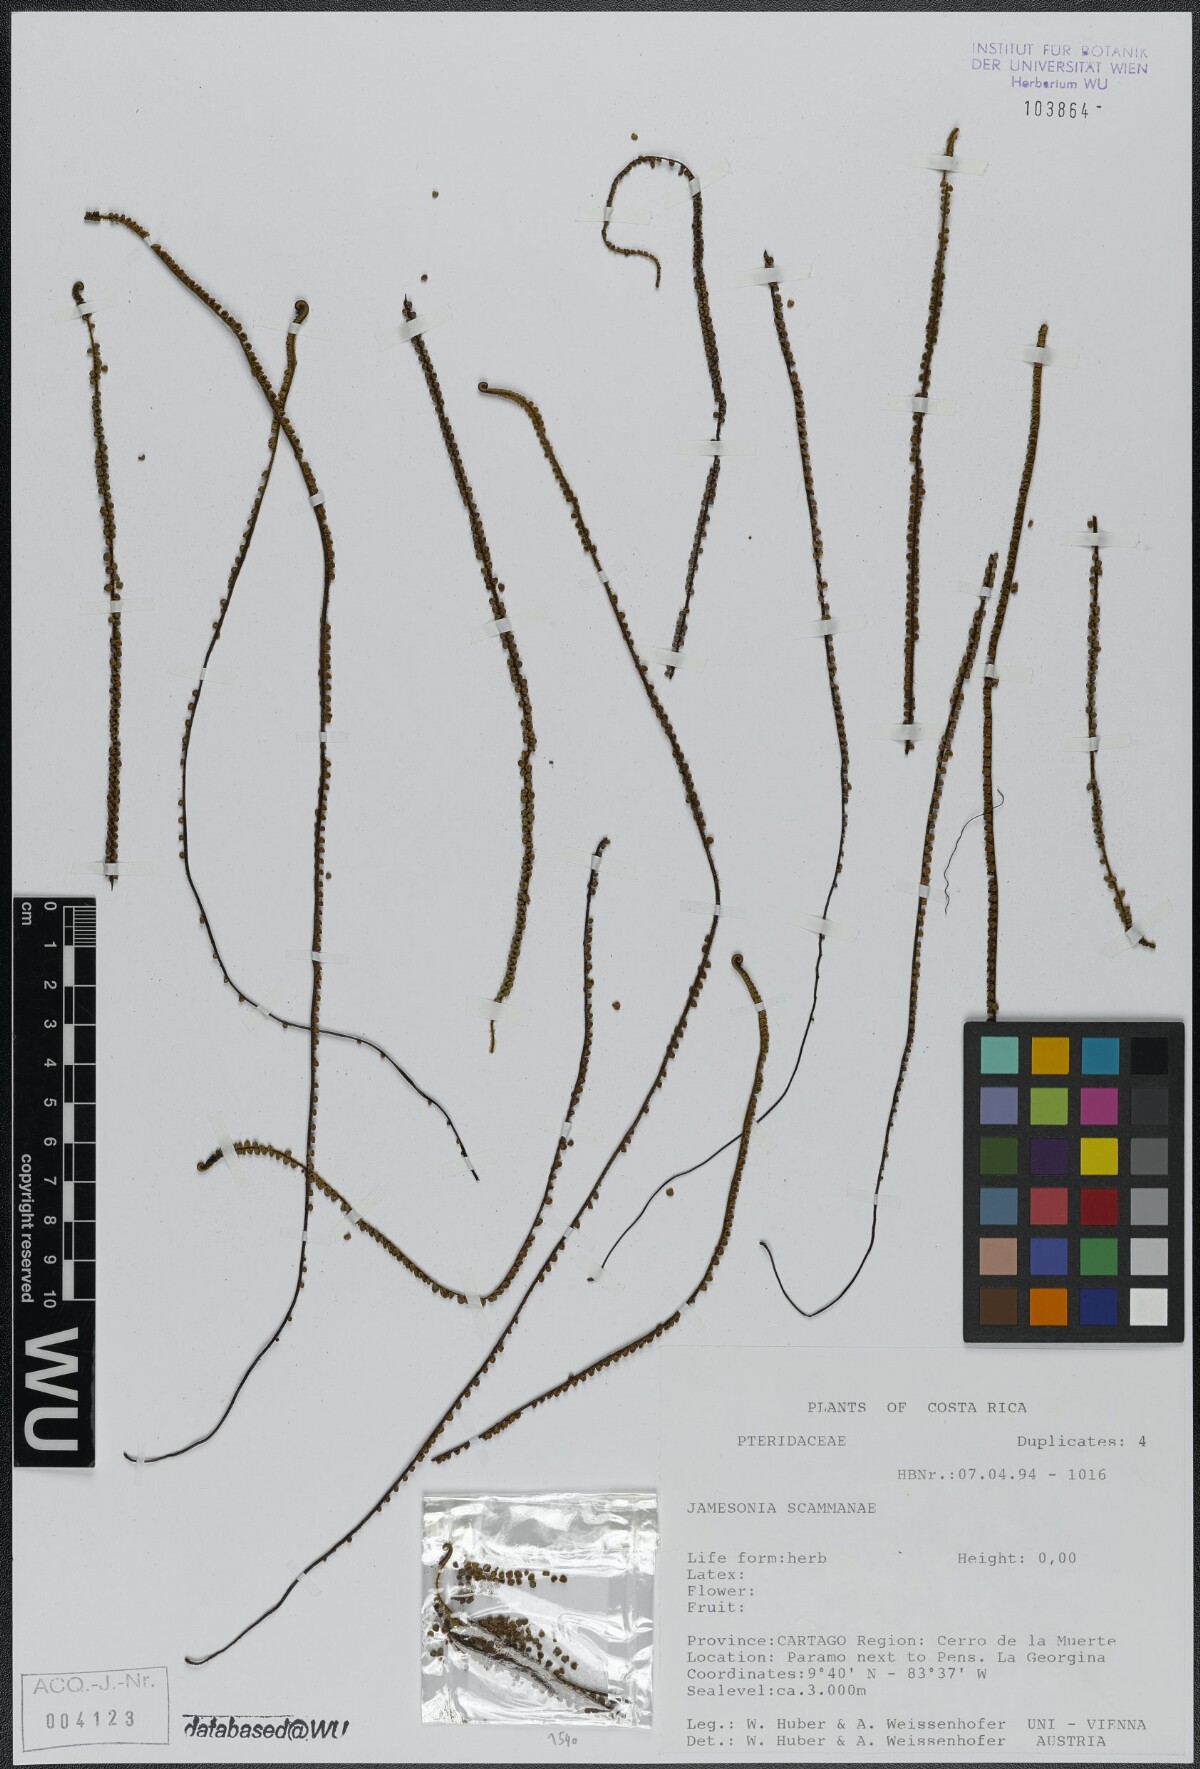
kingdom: Plantae
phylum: Tracheophyta
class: Polypodiopsida
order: Polypodiales
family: Pteridaceae
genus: Jamesonia
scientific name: Jamesonia scammanae
